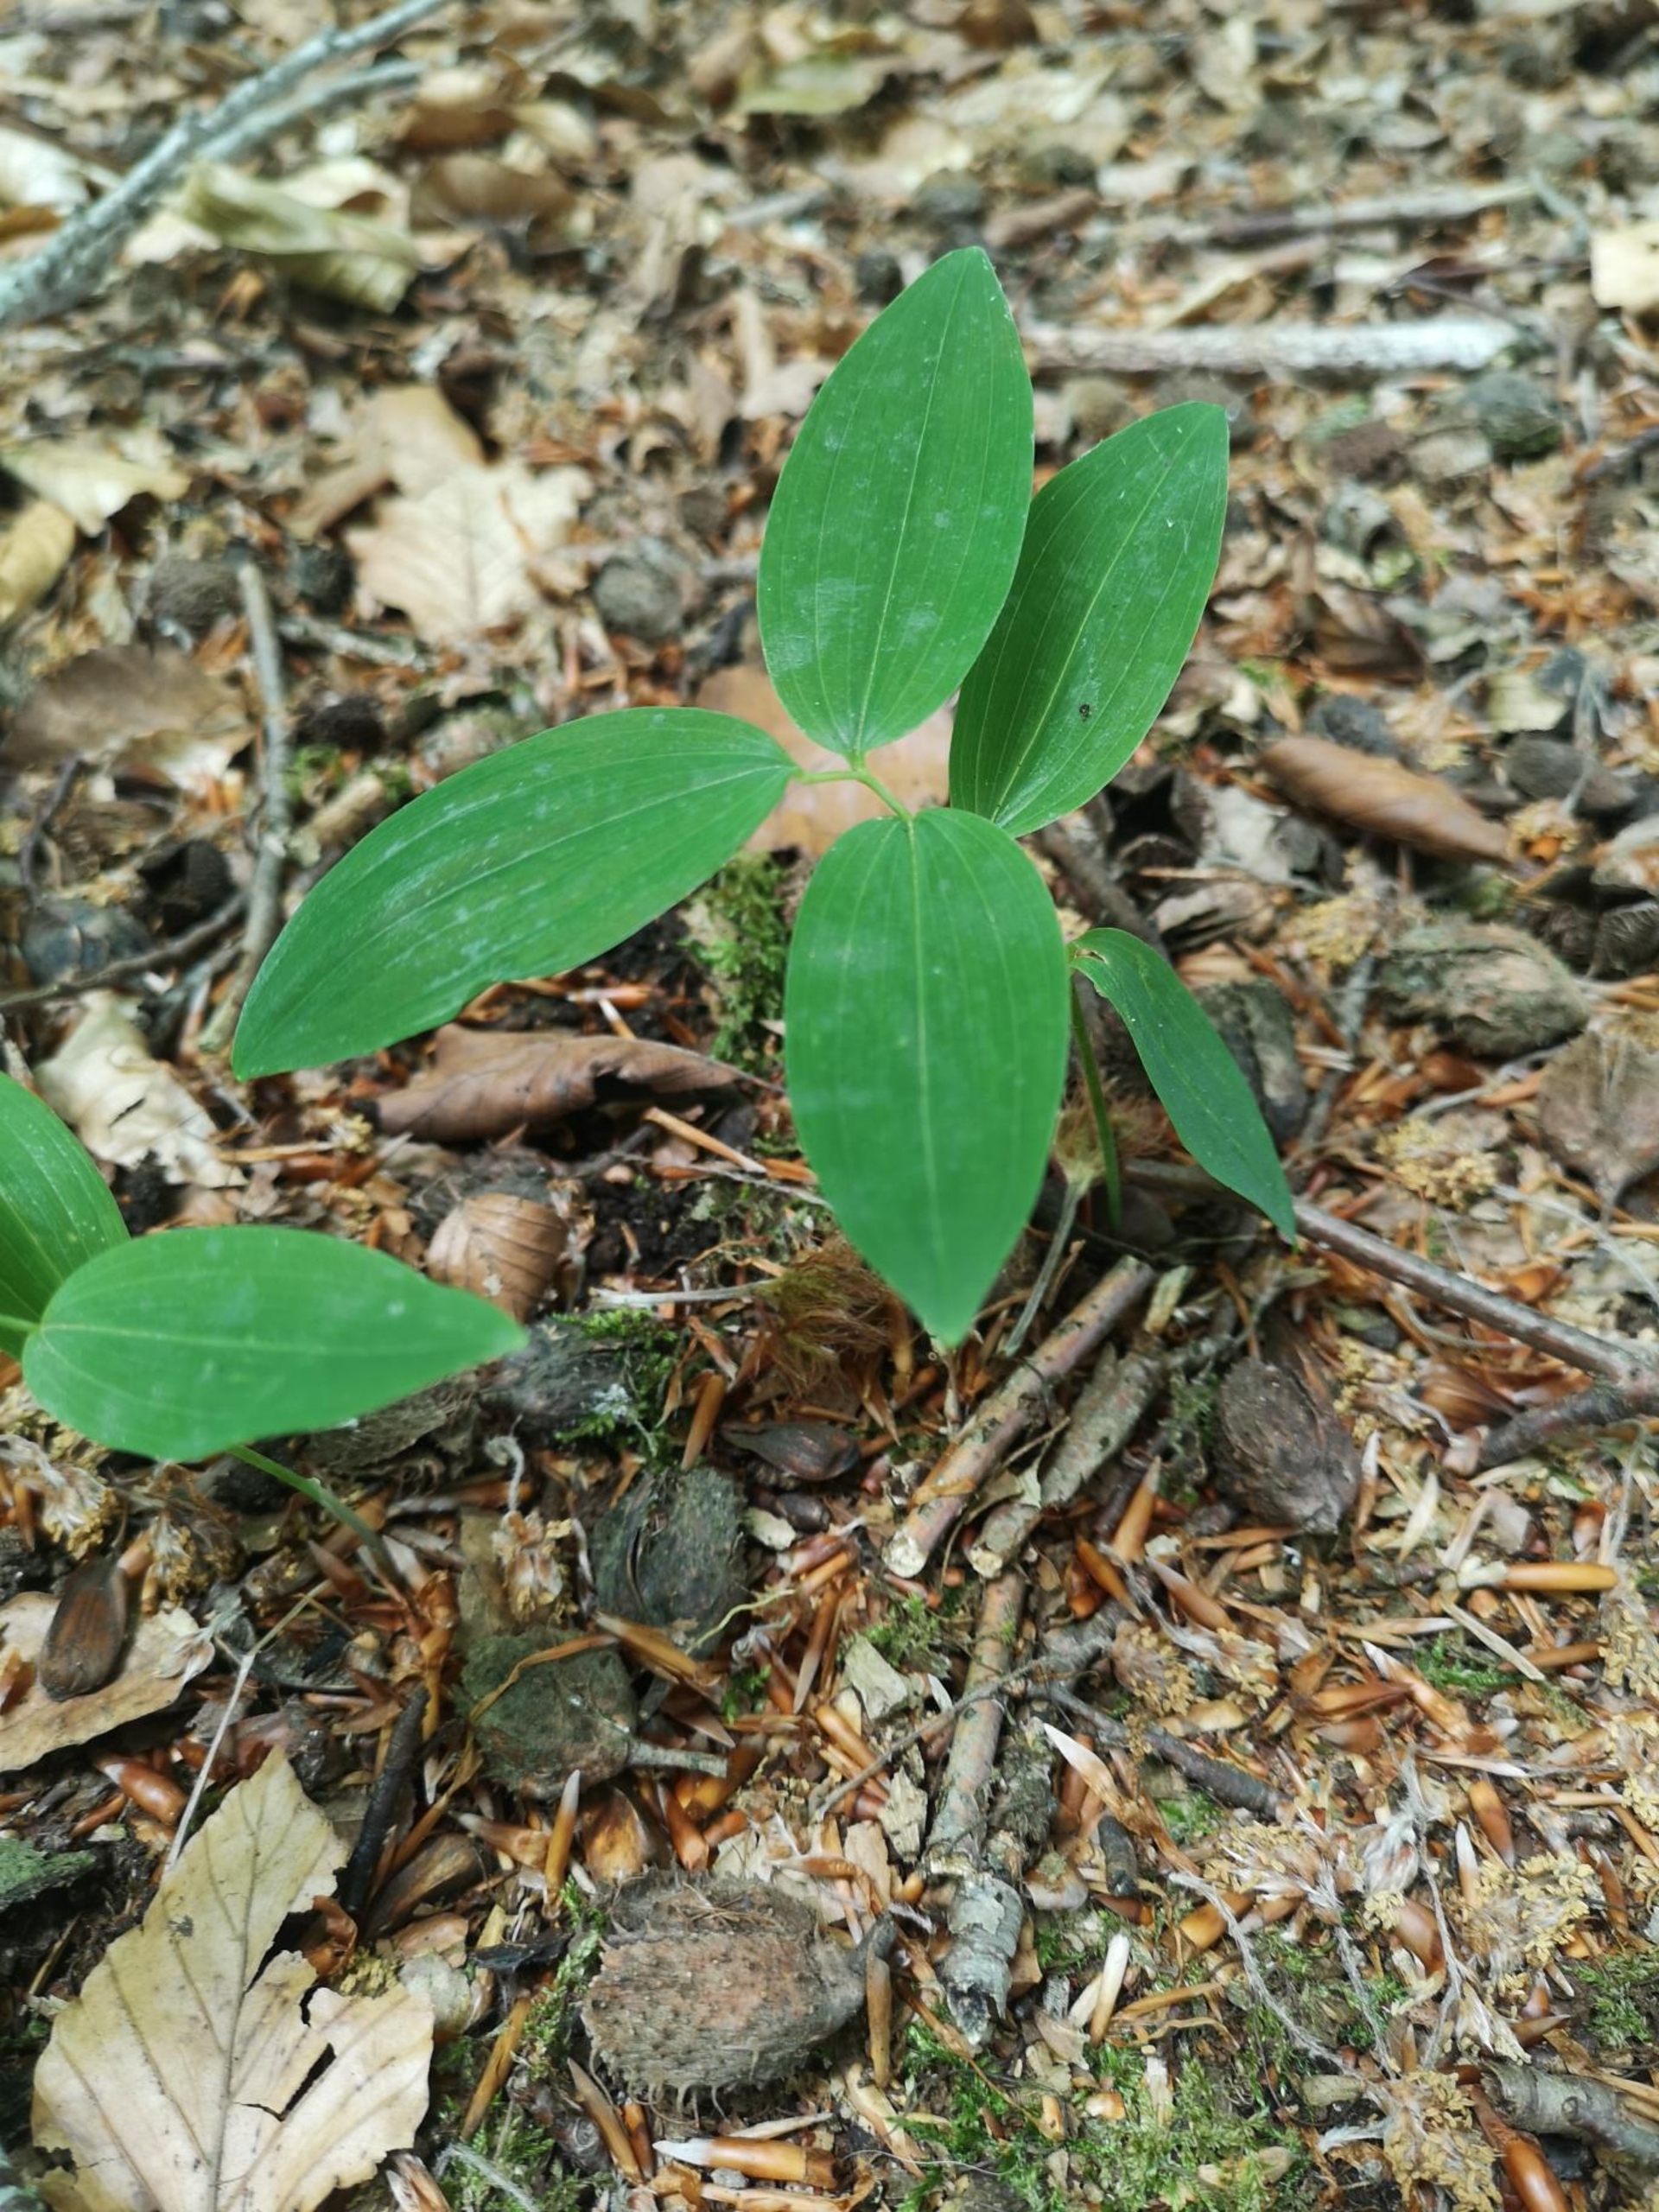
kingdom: Plantae
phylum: Tracheophyta
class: Liliopsida
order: Asparagales
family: Asparagaceae
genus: Polygonatum
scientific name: Polygonatum multiflorum
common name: Stor konval
